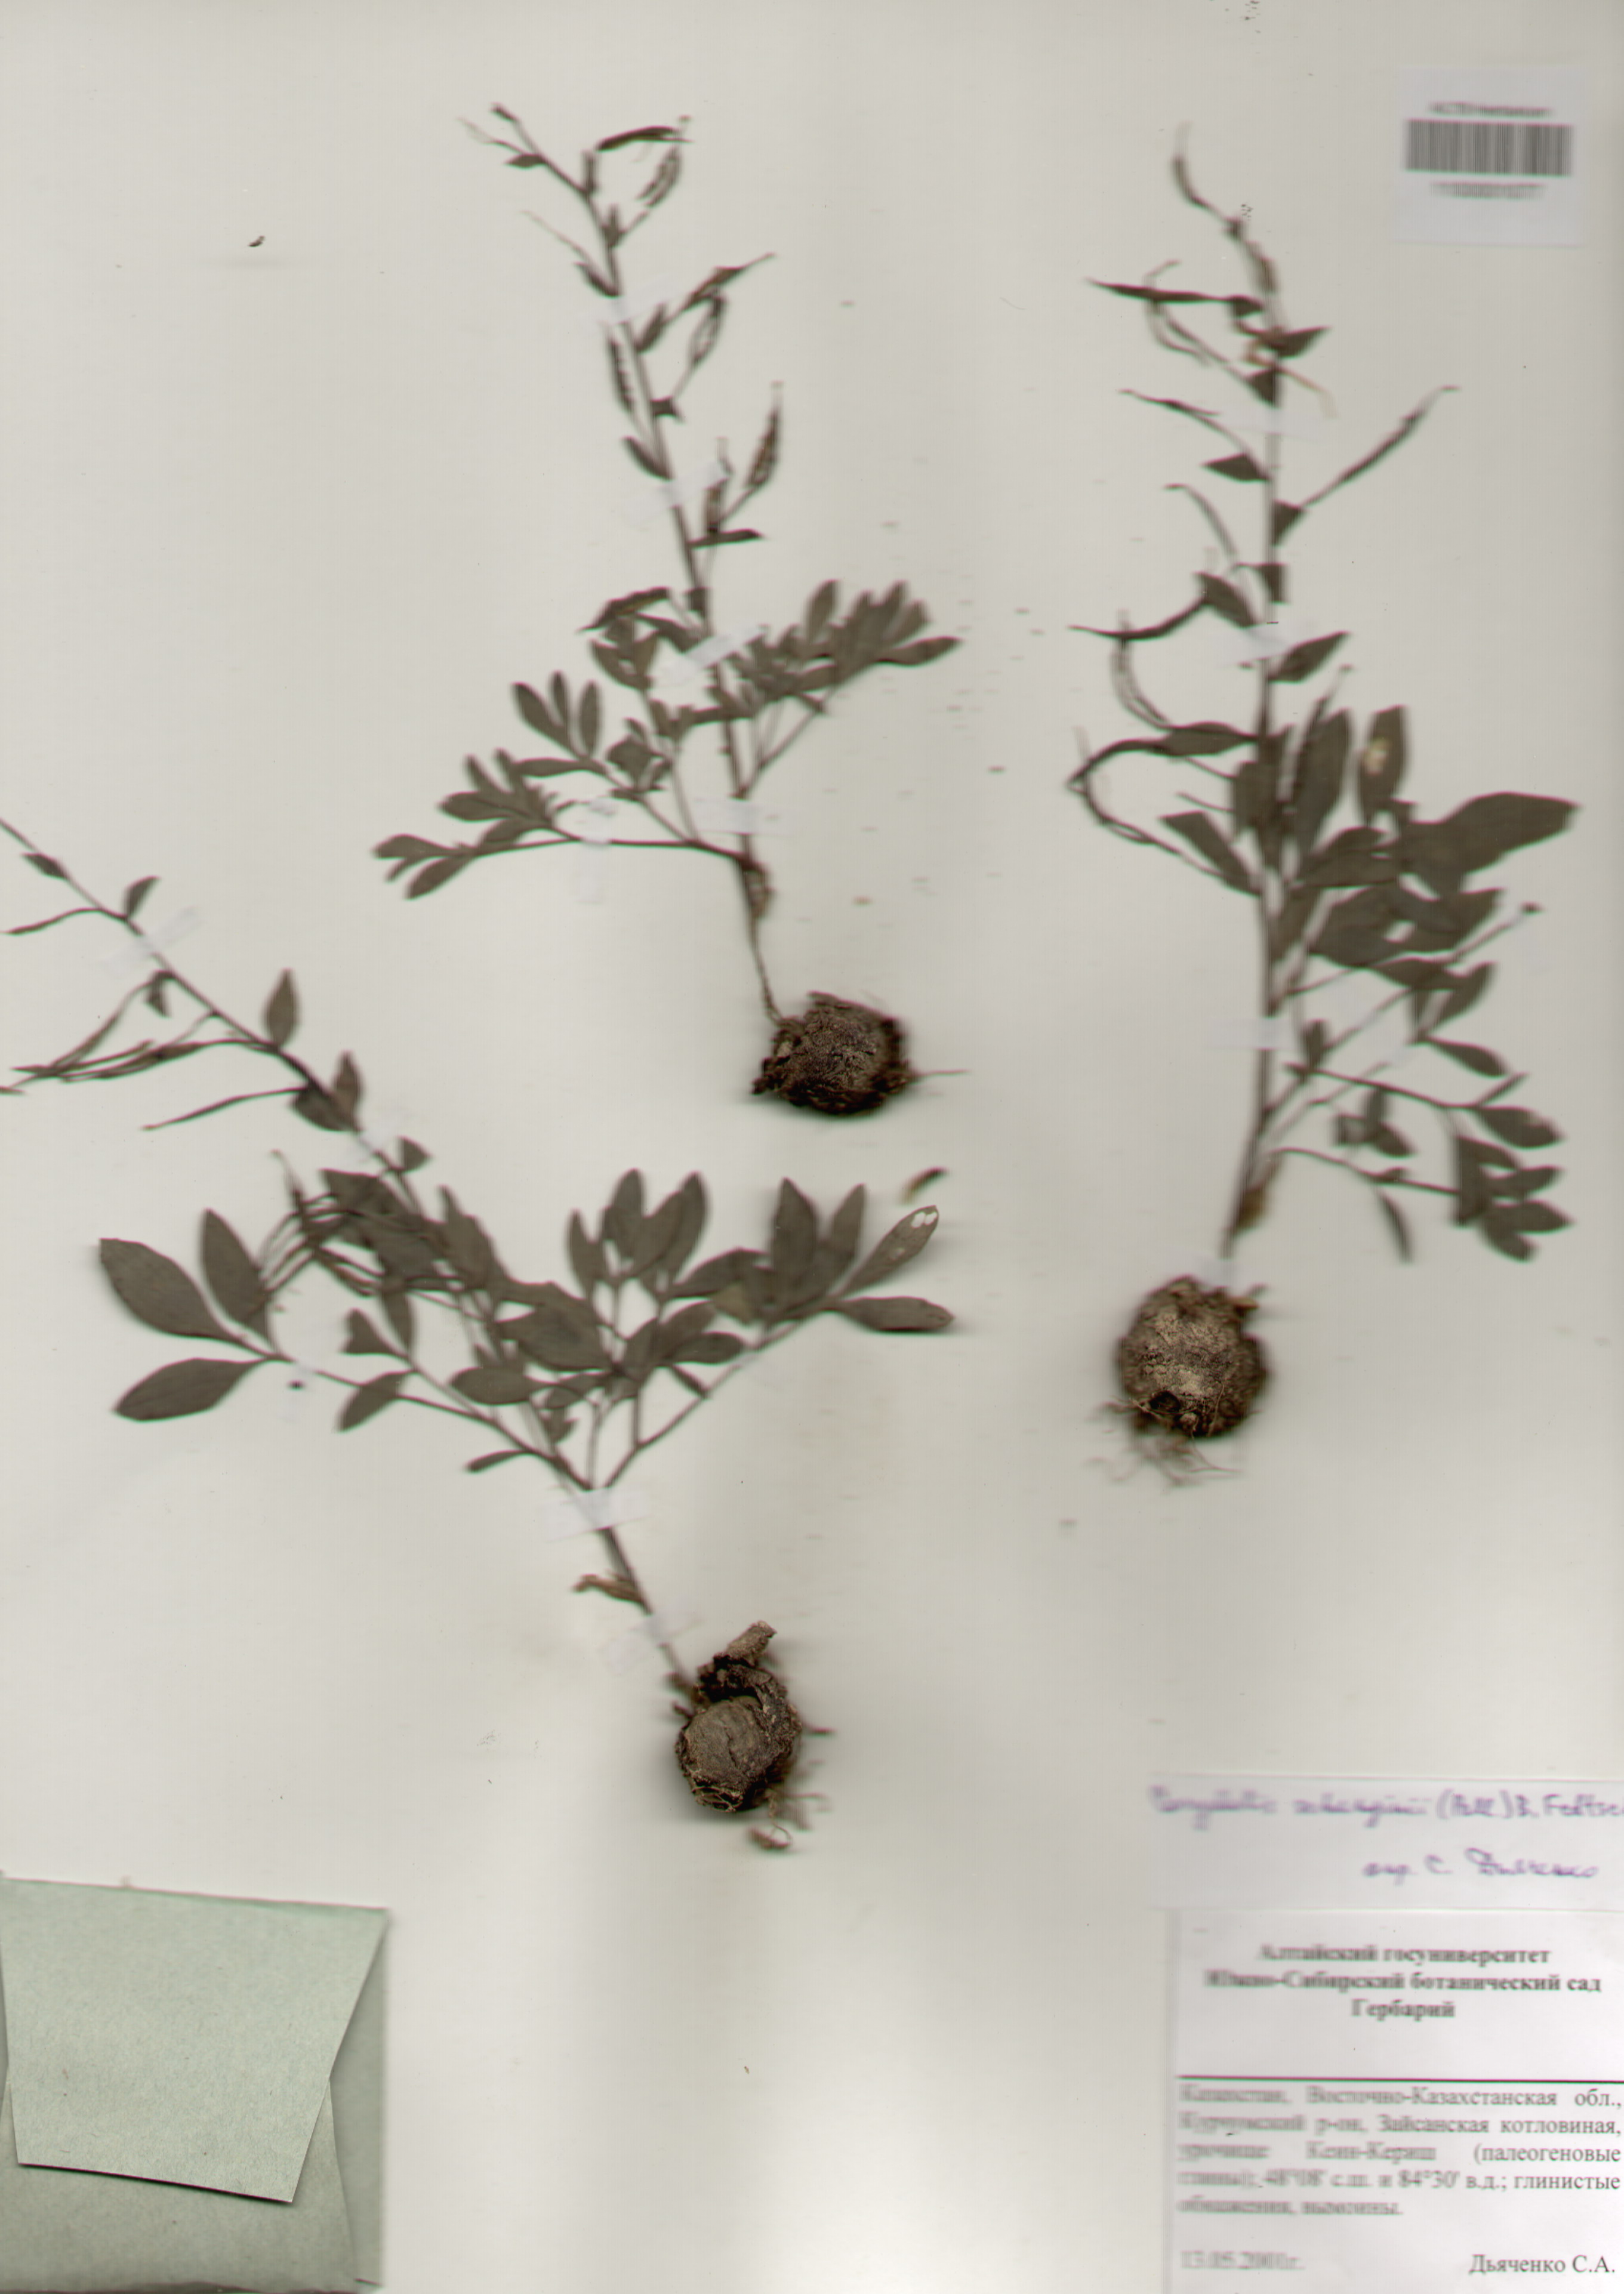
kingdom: Plantae
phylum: Tracheophyta
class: Magnoliopsida
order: Ranunculales
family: Papaveraceae
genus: Corydalis
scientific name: Corydalis schanginii
